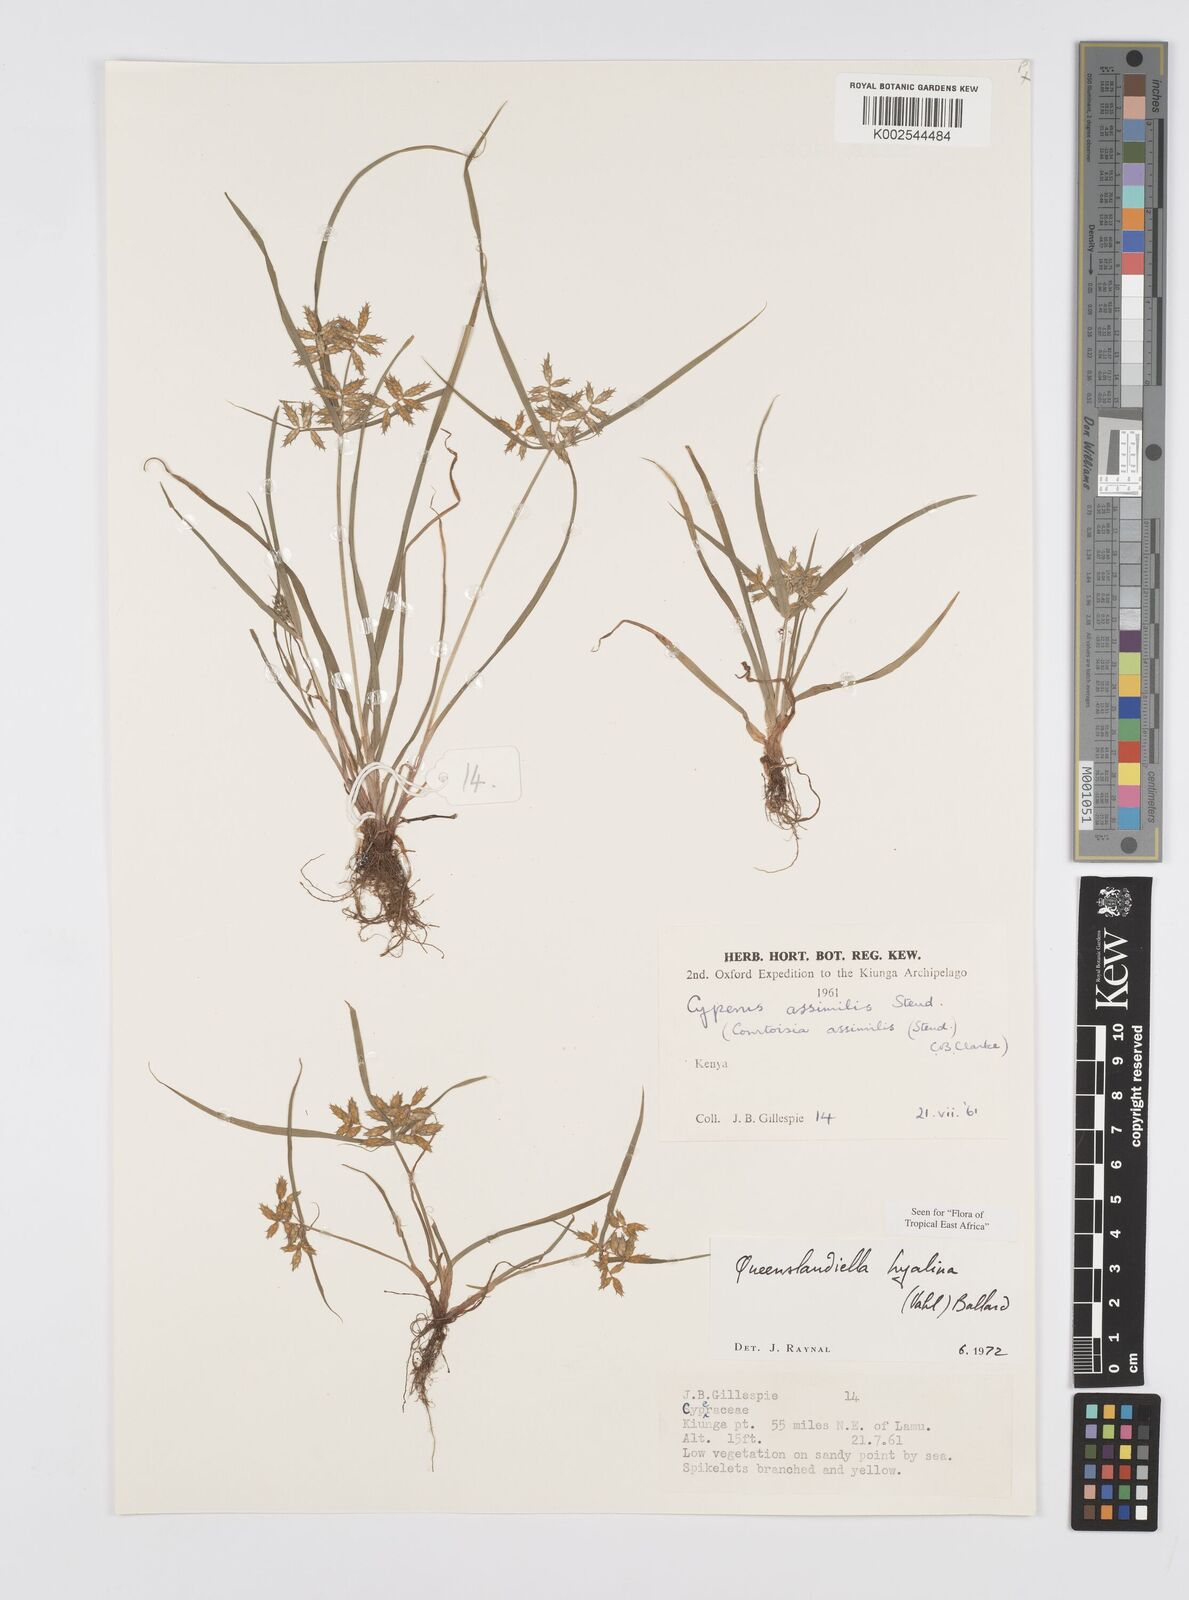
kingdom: Plantae
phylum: Tracheophyta
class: Liliopsida
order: Poales
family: Cyperaceae
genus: Cyperus
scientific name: Cyperus hyalinus
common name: Queensland sedge
